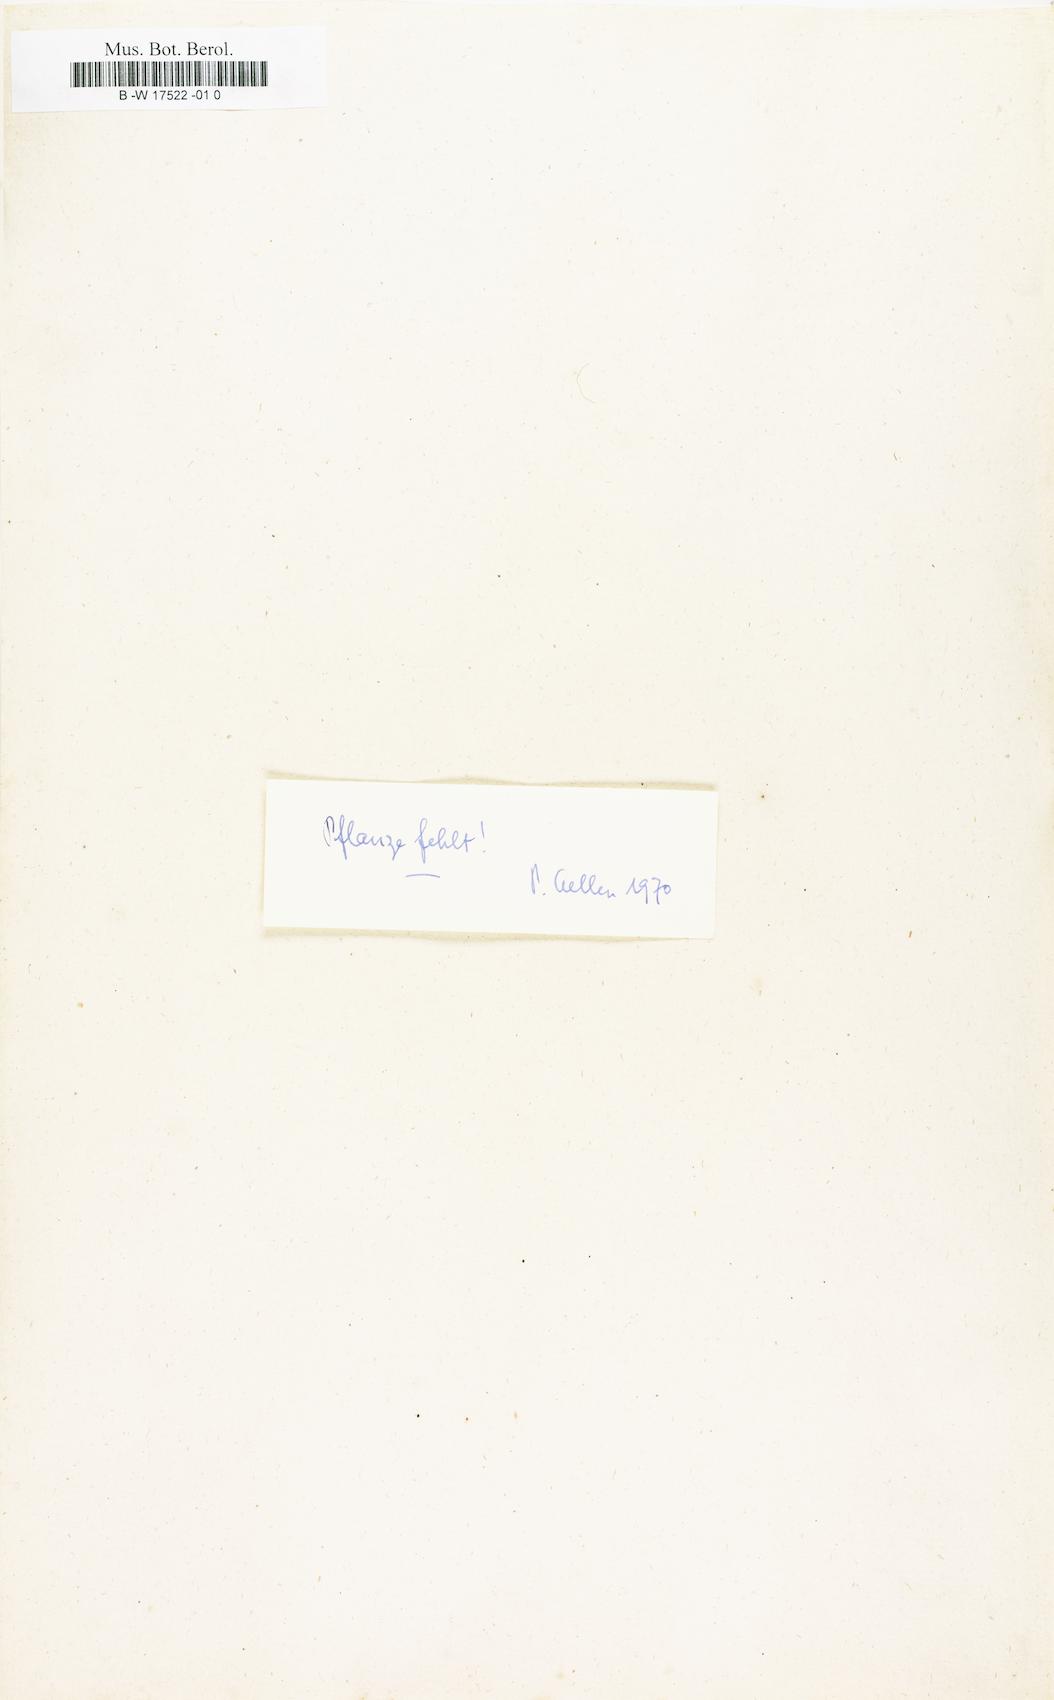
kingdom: Plantae
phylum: Tracheophyta
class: Magnoliopsida
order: Caryophyllales
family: Amaranthaceae
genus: Amaranthus
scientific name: Amaranthus hypochondriacus
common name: Prince's-feather
